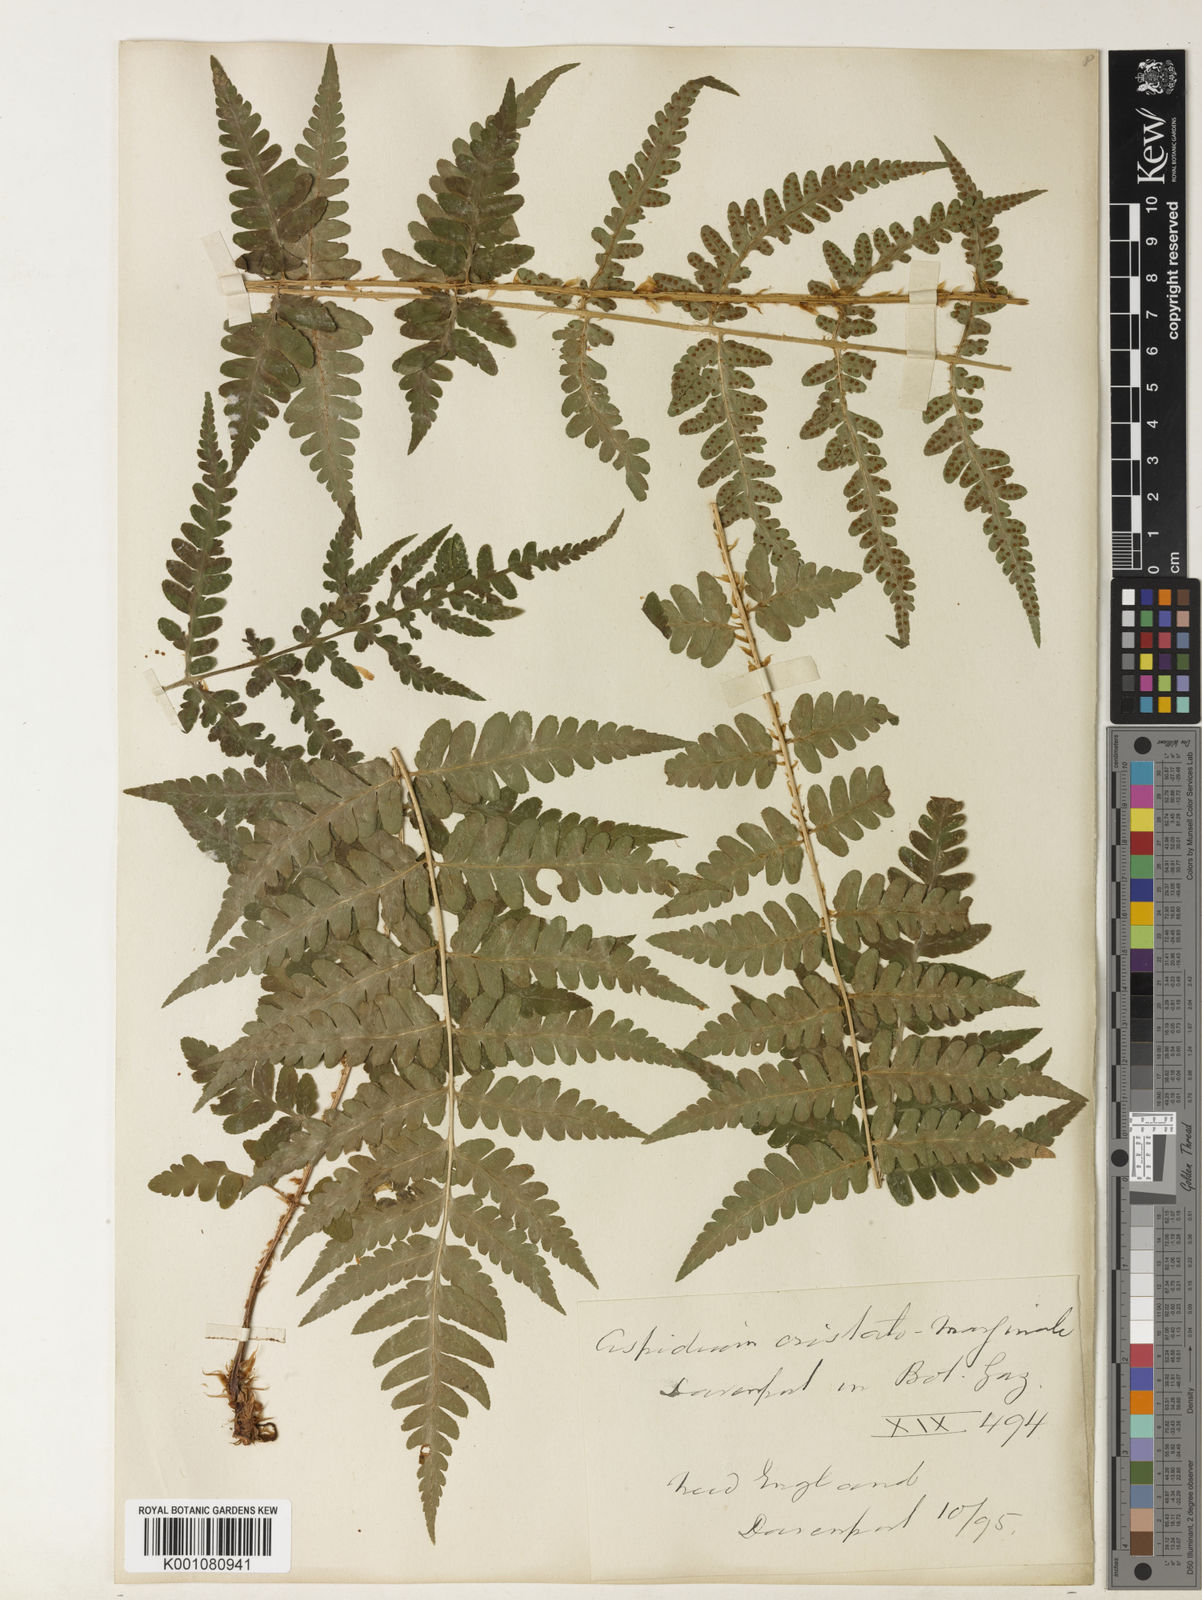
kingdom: Plantae
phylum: Tracheophyta
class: Polypodiopsida
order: Polypodiales
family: Dryopteridaceae
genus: Dryopteris
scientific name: Dryopteris
